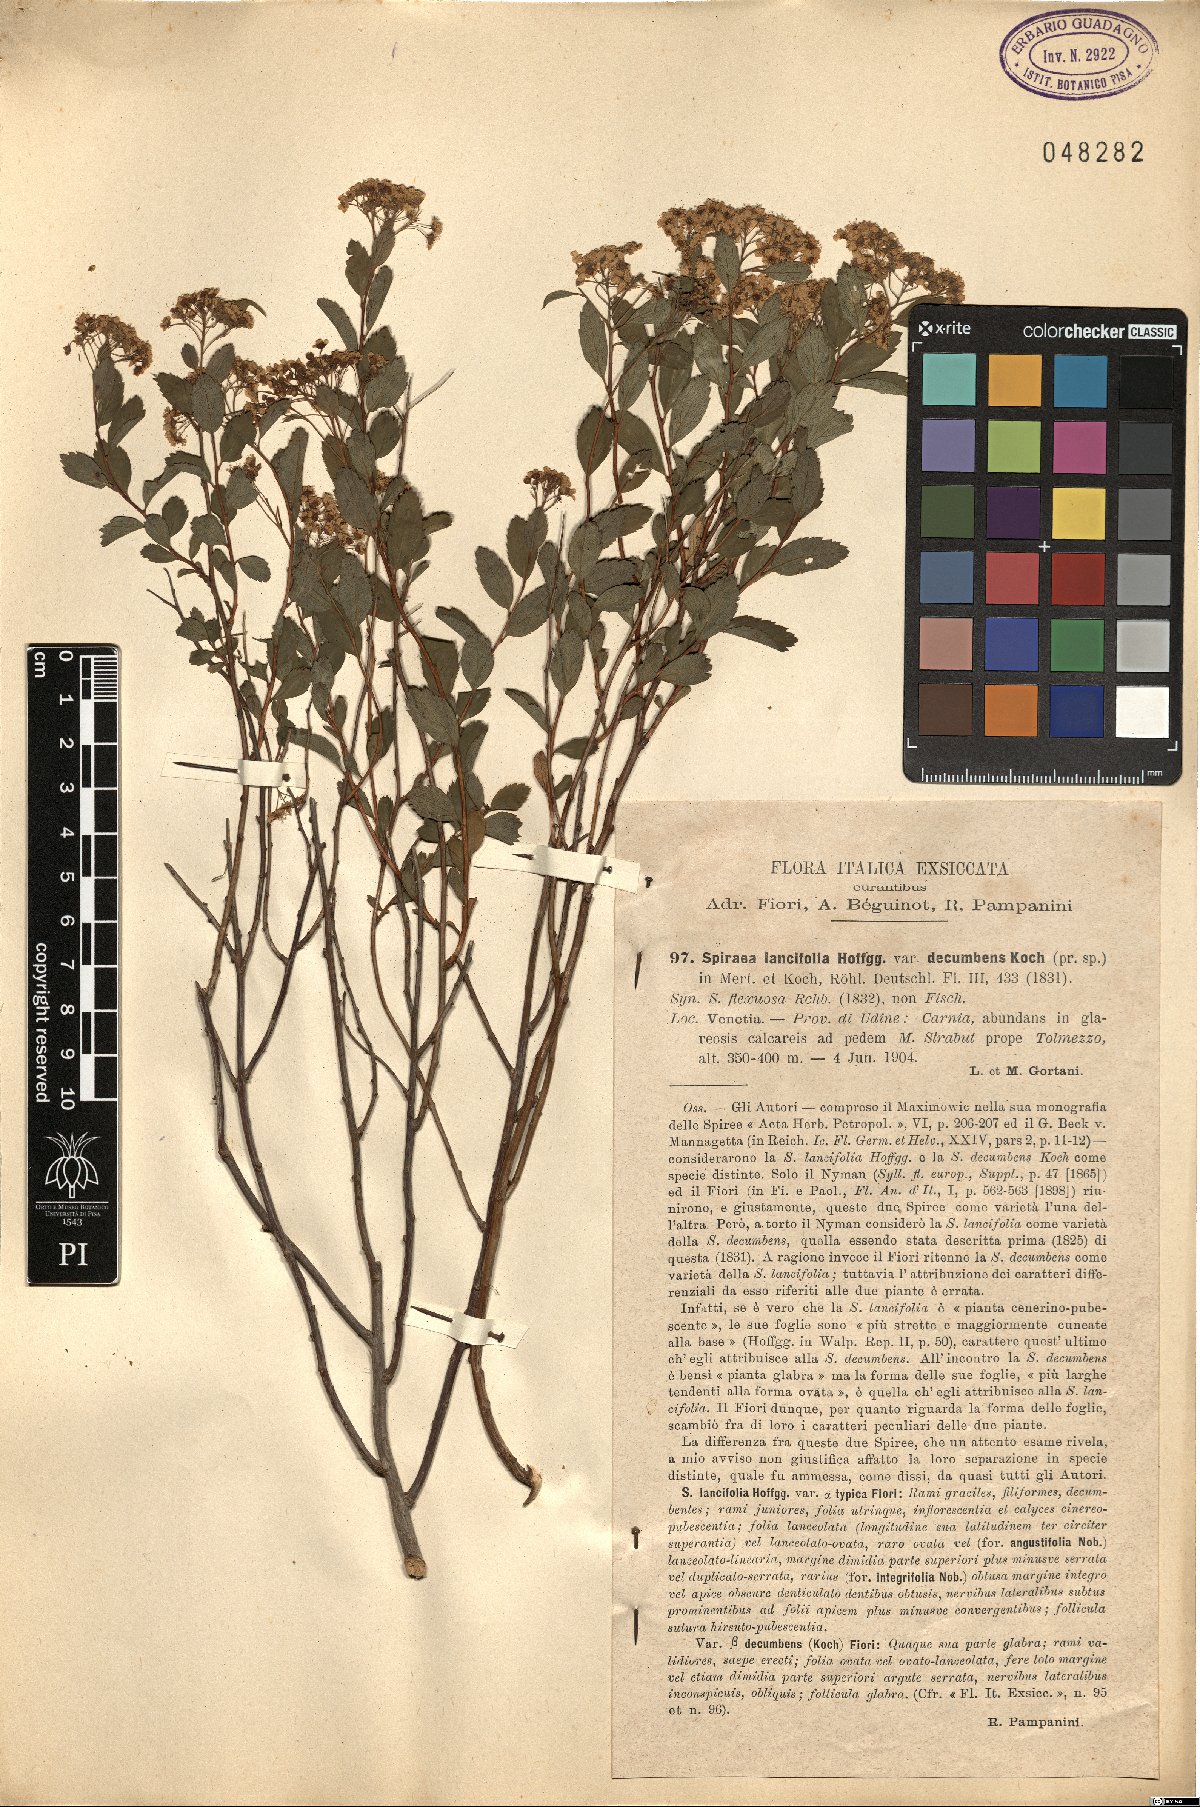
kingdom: Plantae
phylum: Tracheophyta
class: Magnoliopsida
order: Rosales
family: Rosaceae
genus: Spiraea
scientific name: Spiraea decumbens
